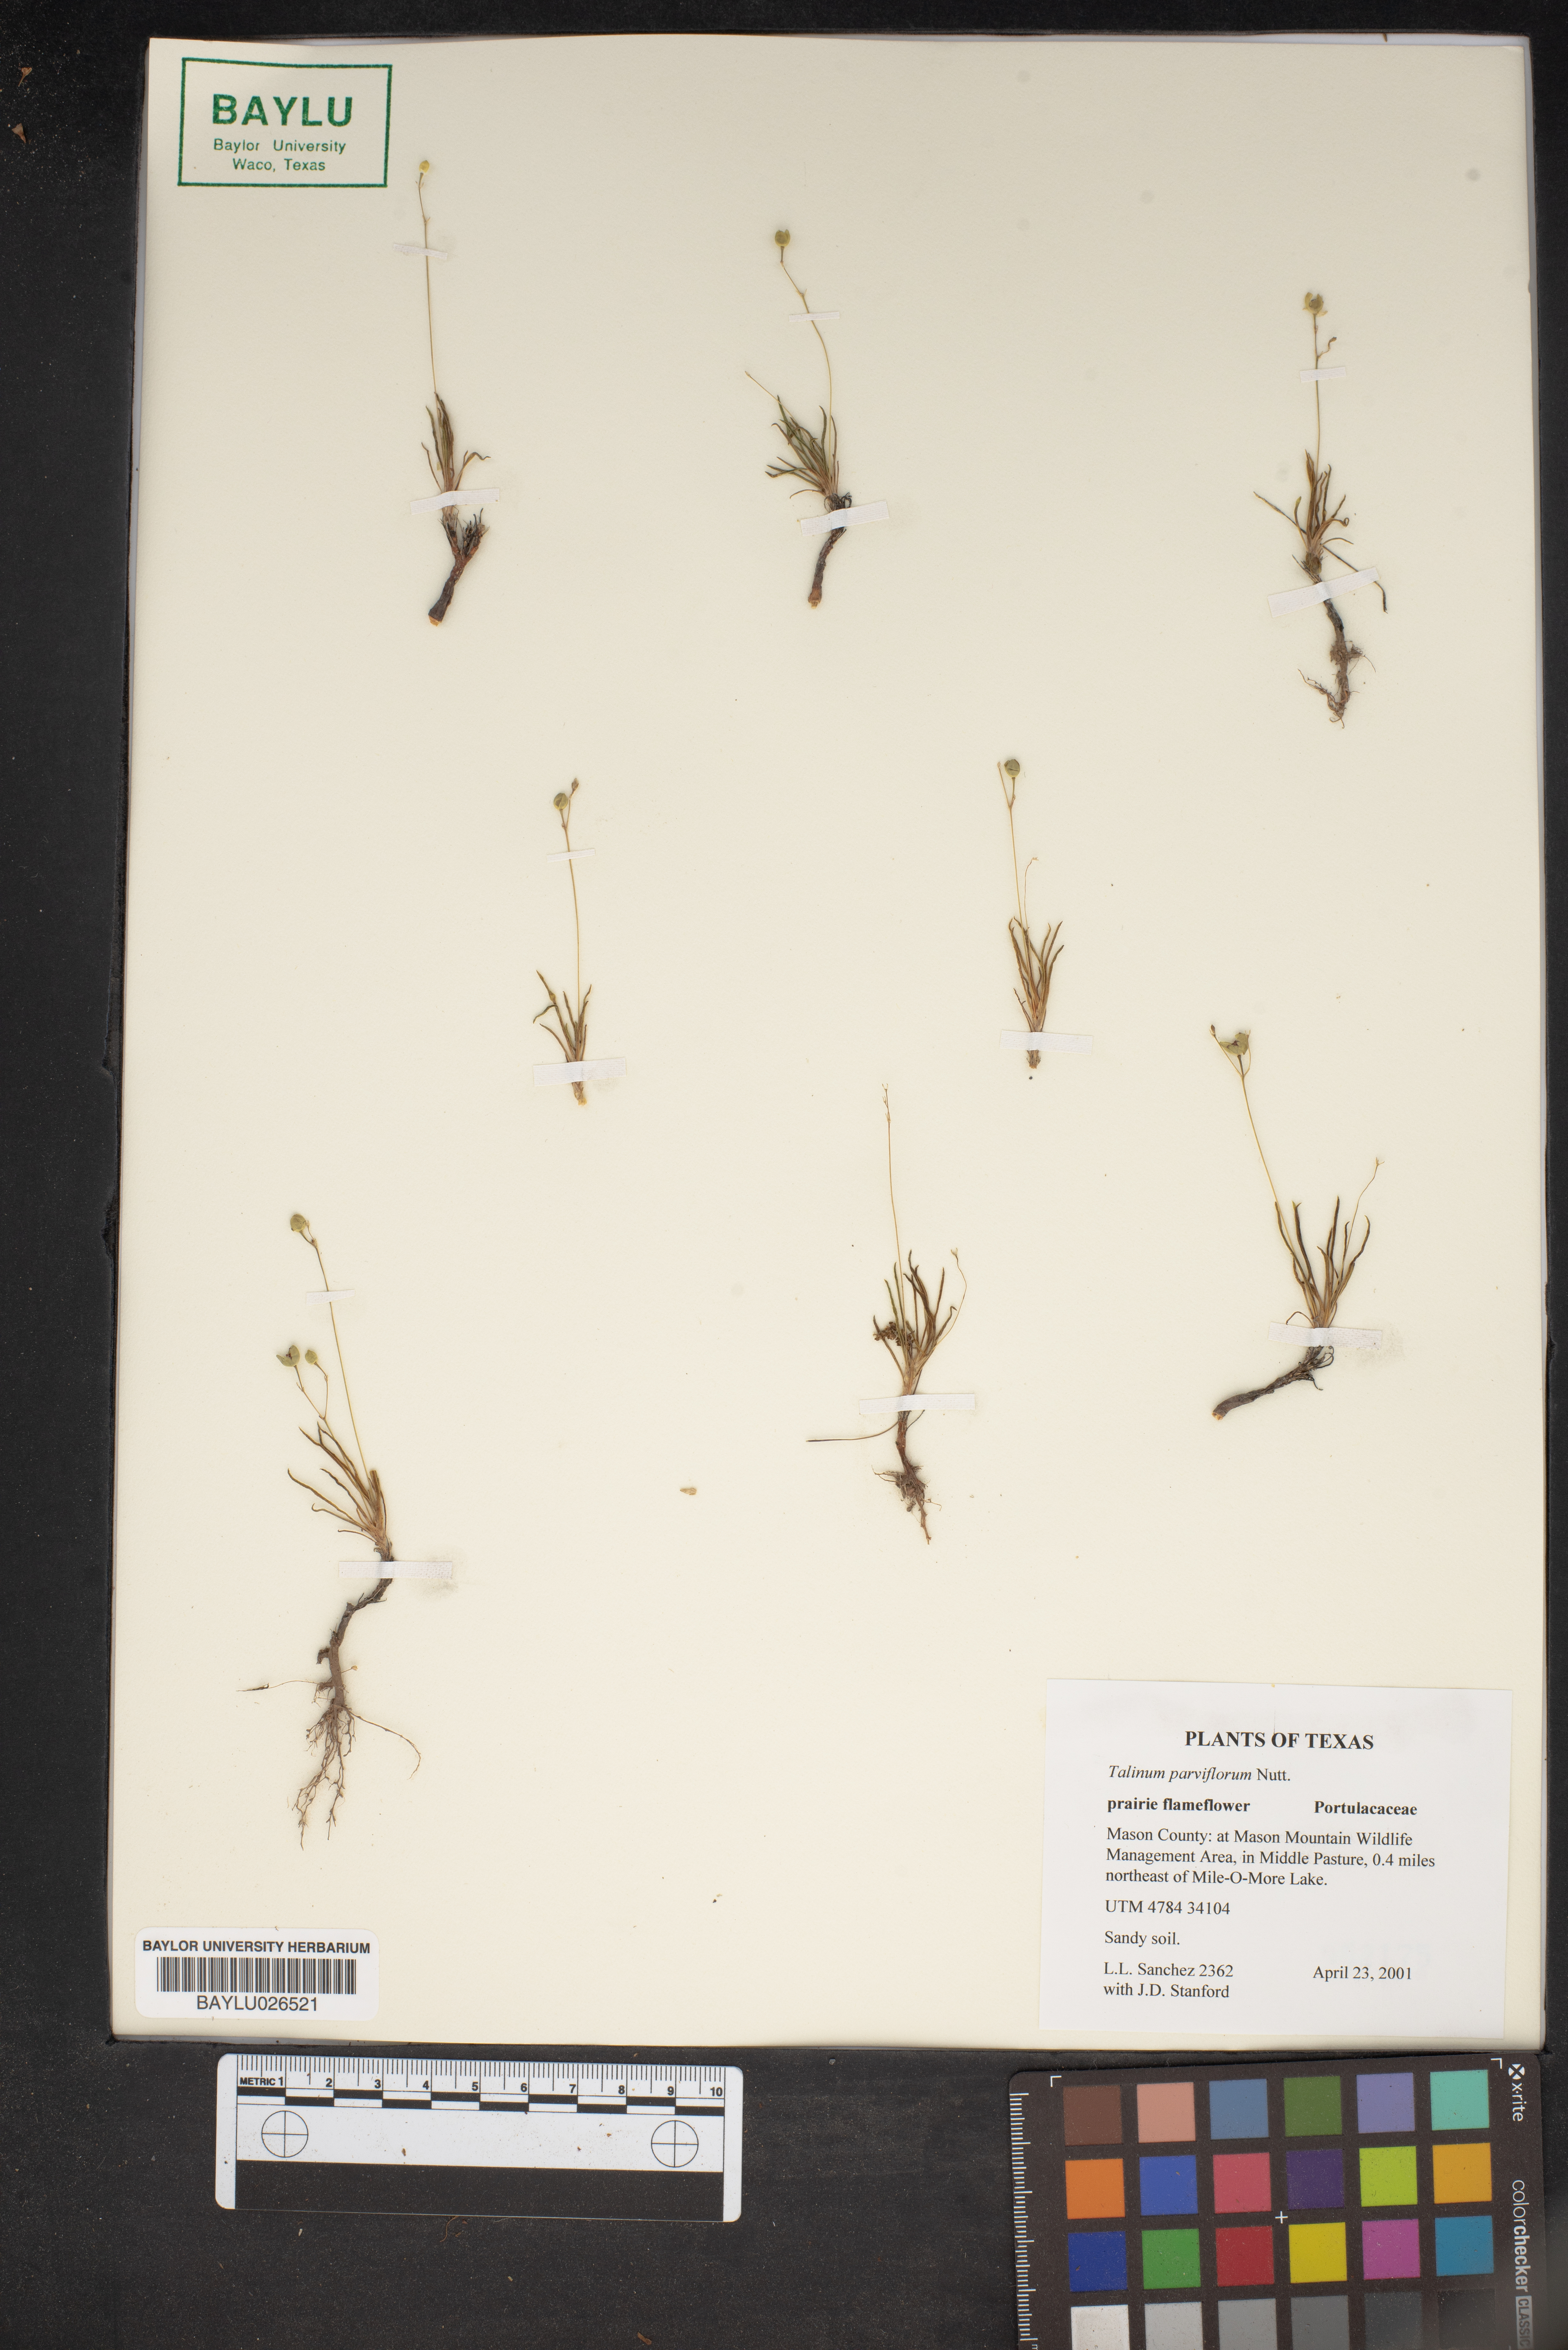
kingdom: Plantae
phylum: Tracheophyta
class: Magnoliopsida
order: Caryophyllales
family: Montiaceae
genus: Phemeranthus
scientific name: Phemeranthus parviflorus
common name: Sunbright
